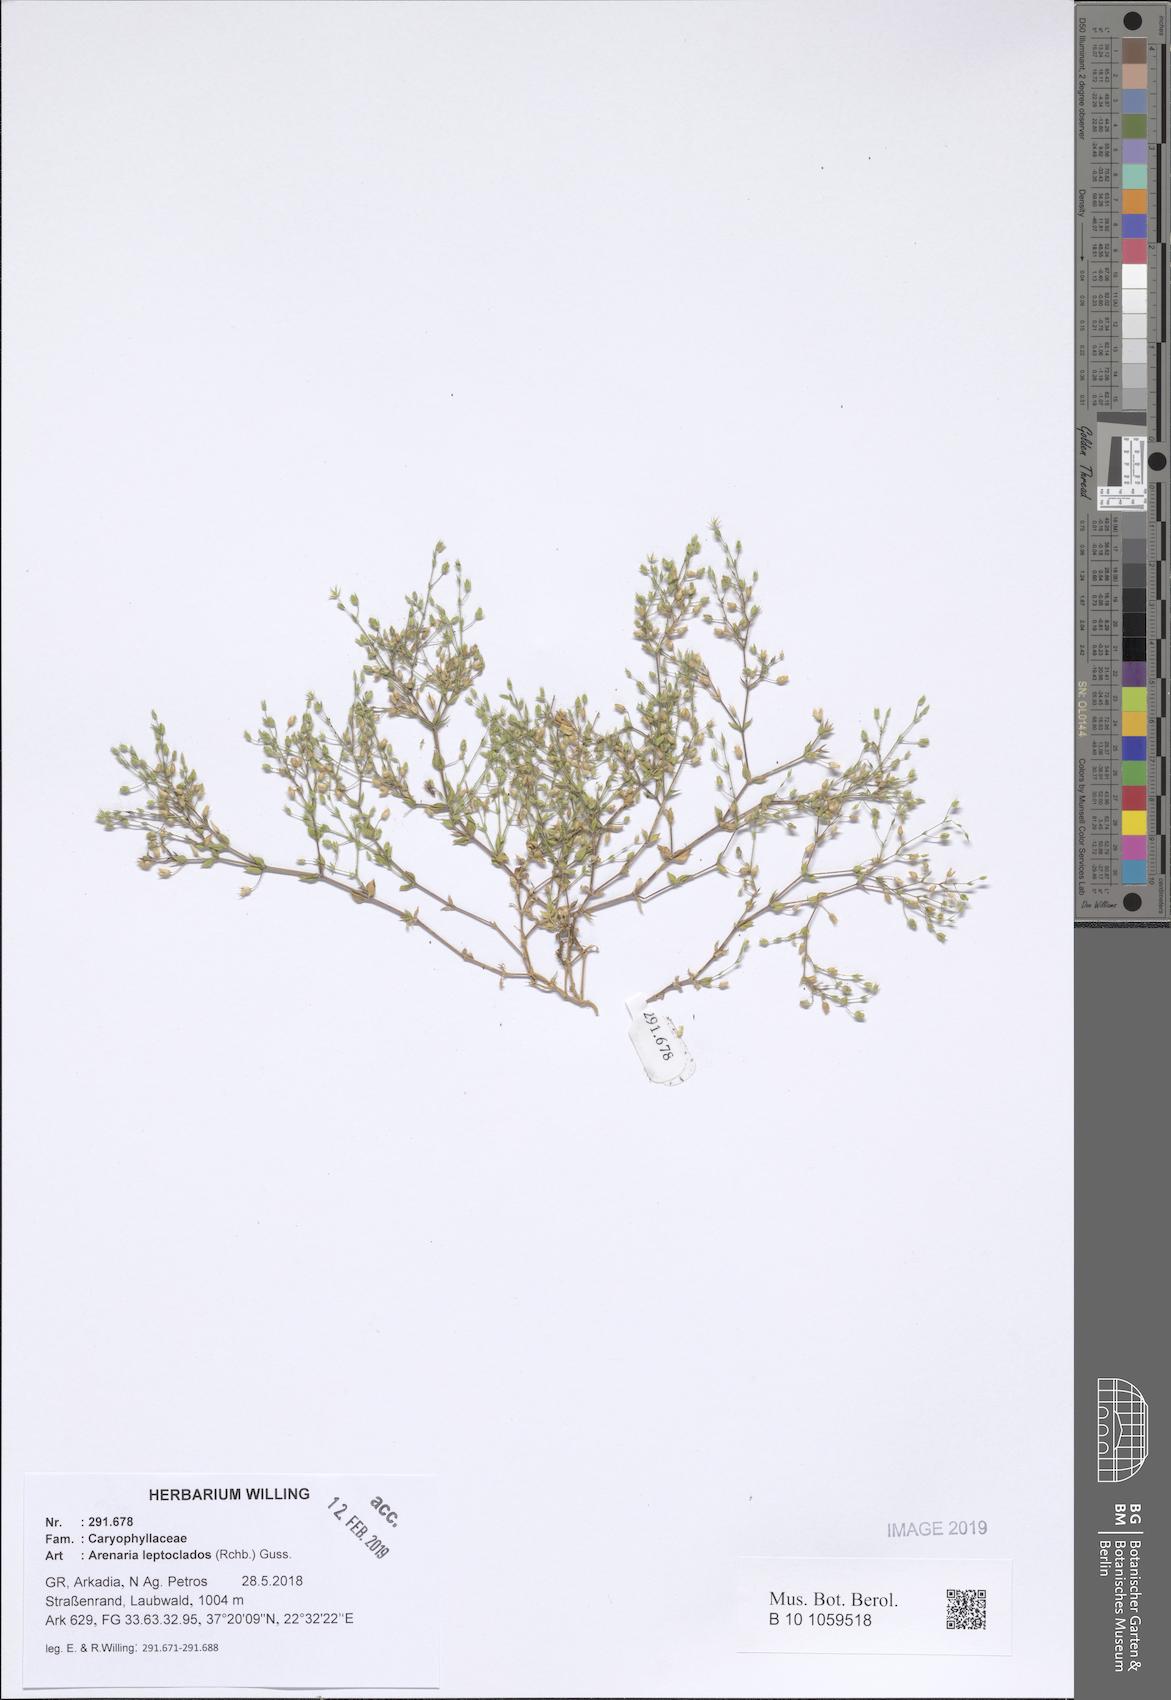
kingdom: Plantae
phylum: Tracheophyta
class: Magnoliopsida
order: Caryophyllales
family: Caryophyllaceae
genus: Arenaria
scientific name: Arenaria leptoclados
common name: Thyme-leaved sandwort
